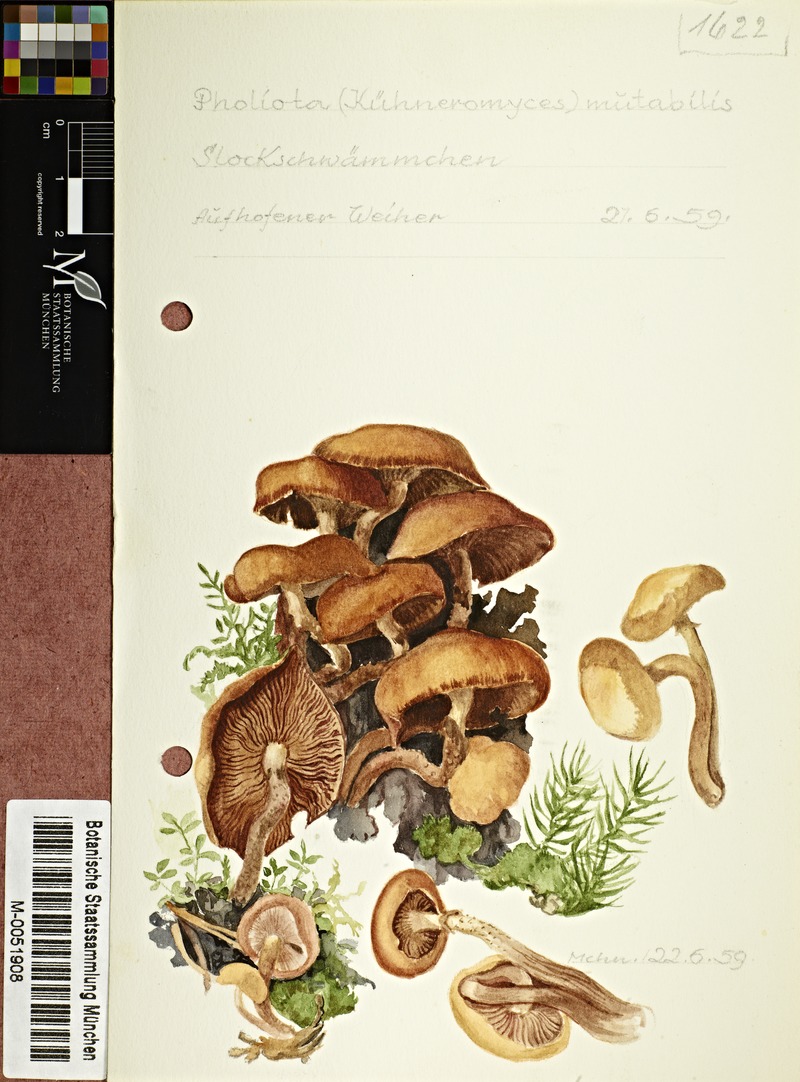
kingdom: Fungi
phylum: Basidiomycota
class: Agaricomycetes
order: Agaricales
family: Strophariaceae
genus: Kuehneromyces
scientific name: Kuehneromyces mutabilis
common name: Sheathed woodtuft
